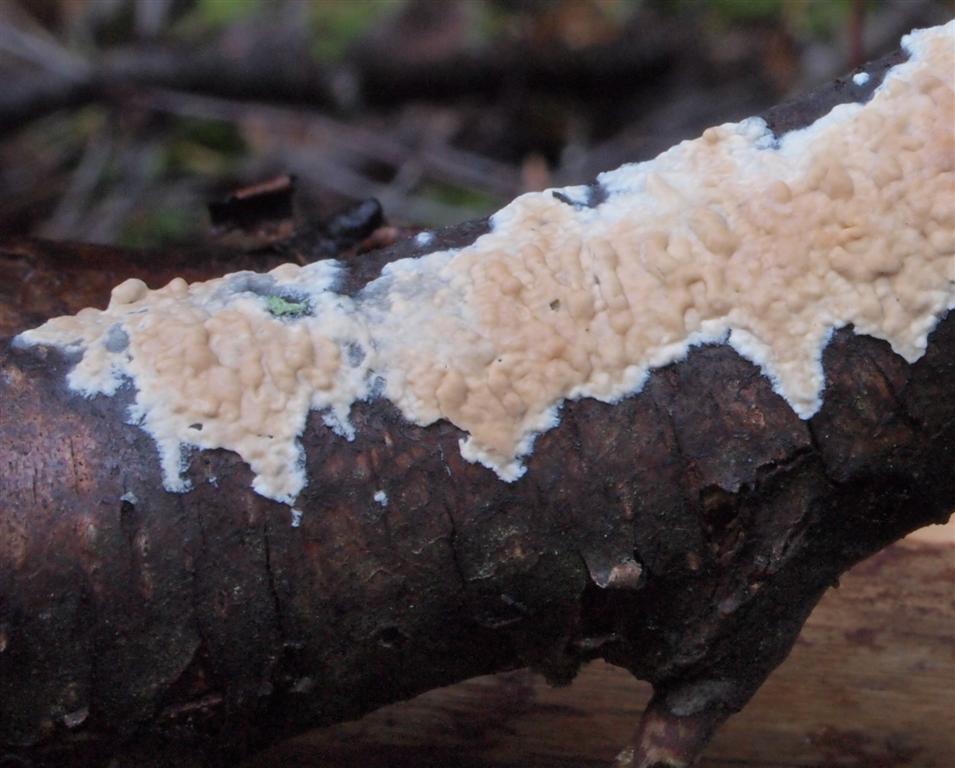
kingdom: Fungi
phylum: Basidiomycota
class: Agaricomycetes
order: Agaricales
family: Physalacriaceae
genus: Cylindrobasidium
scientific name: Cylindrobasidium evolvens
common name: sprækkehinde
